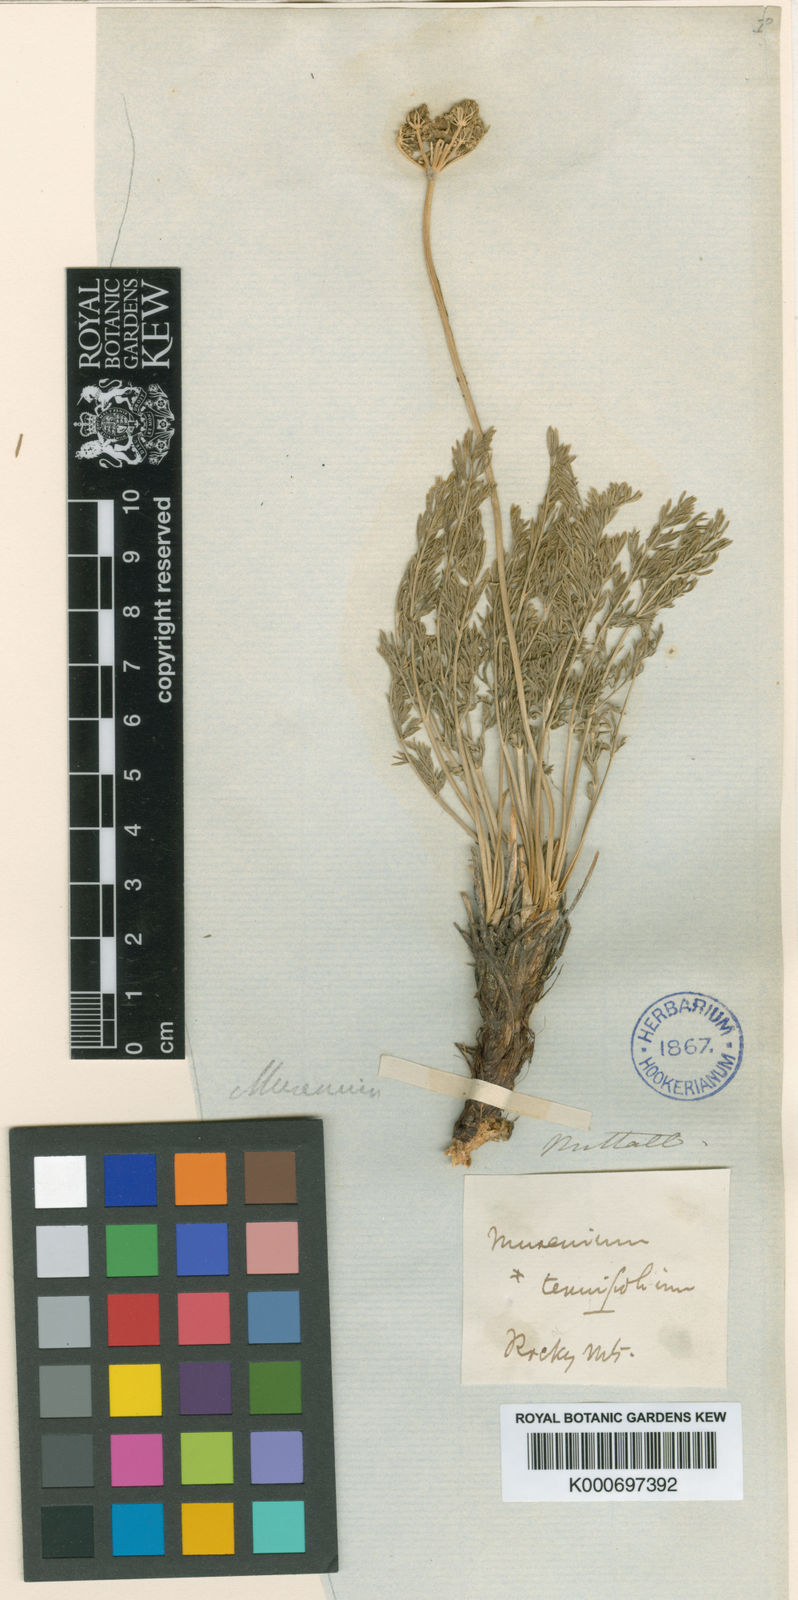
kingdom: Plantae
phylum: Tracheophyta
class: Magnoliopsida
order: Apiales
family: Apiaceae
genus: Musineon
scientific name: Musineon tenuifolium
